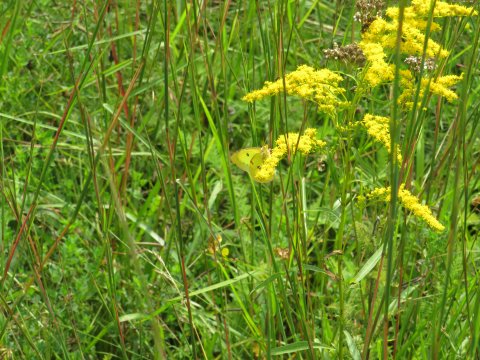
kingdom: Animalia
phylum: Arthropoda
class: Insecta
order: Lepidoptera
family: Pieridae
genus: Colias
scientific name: Colias eurytheme
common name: Orange Sulphur
